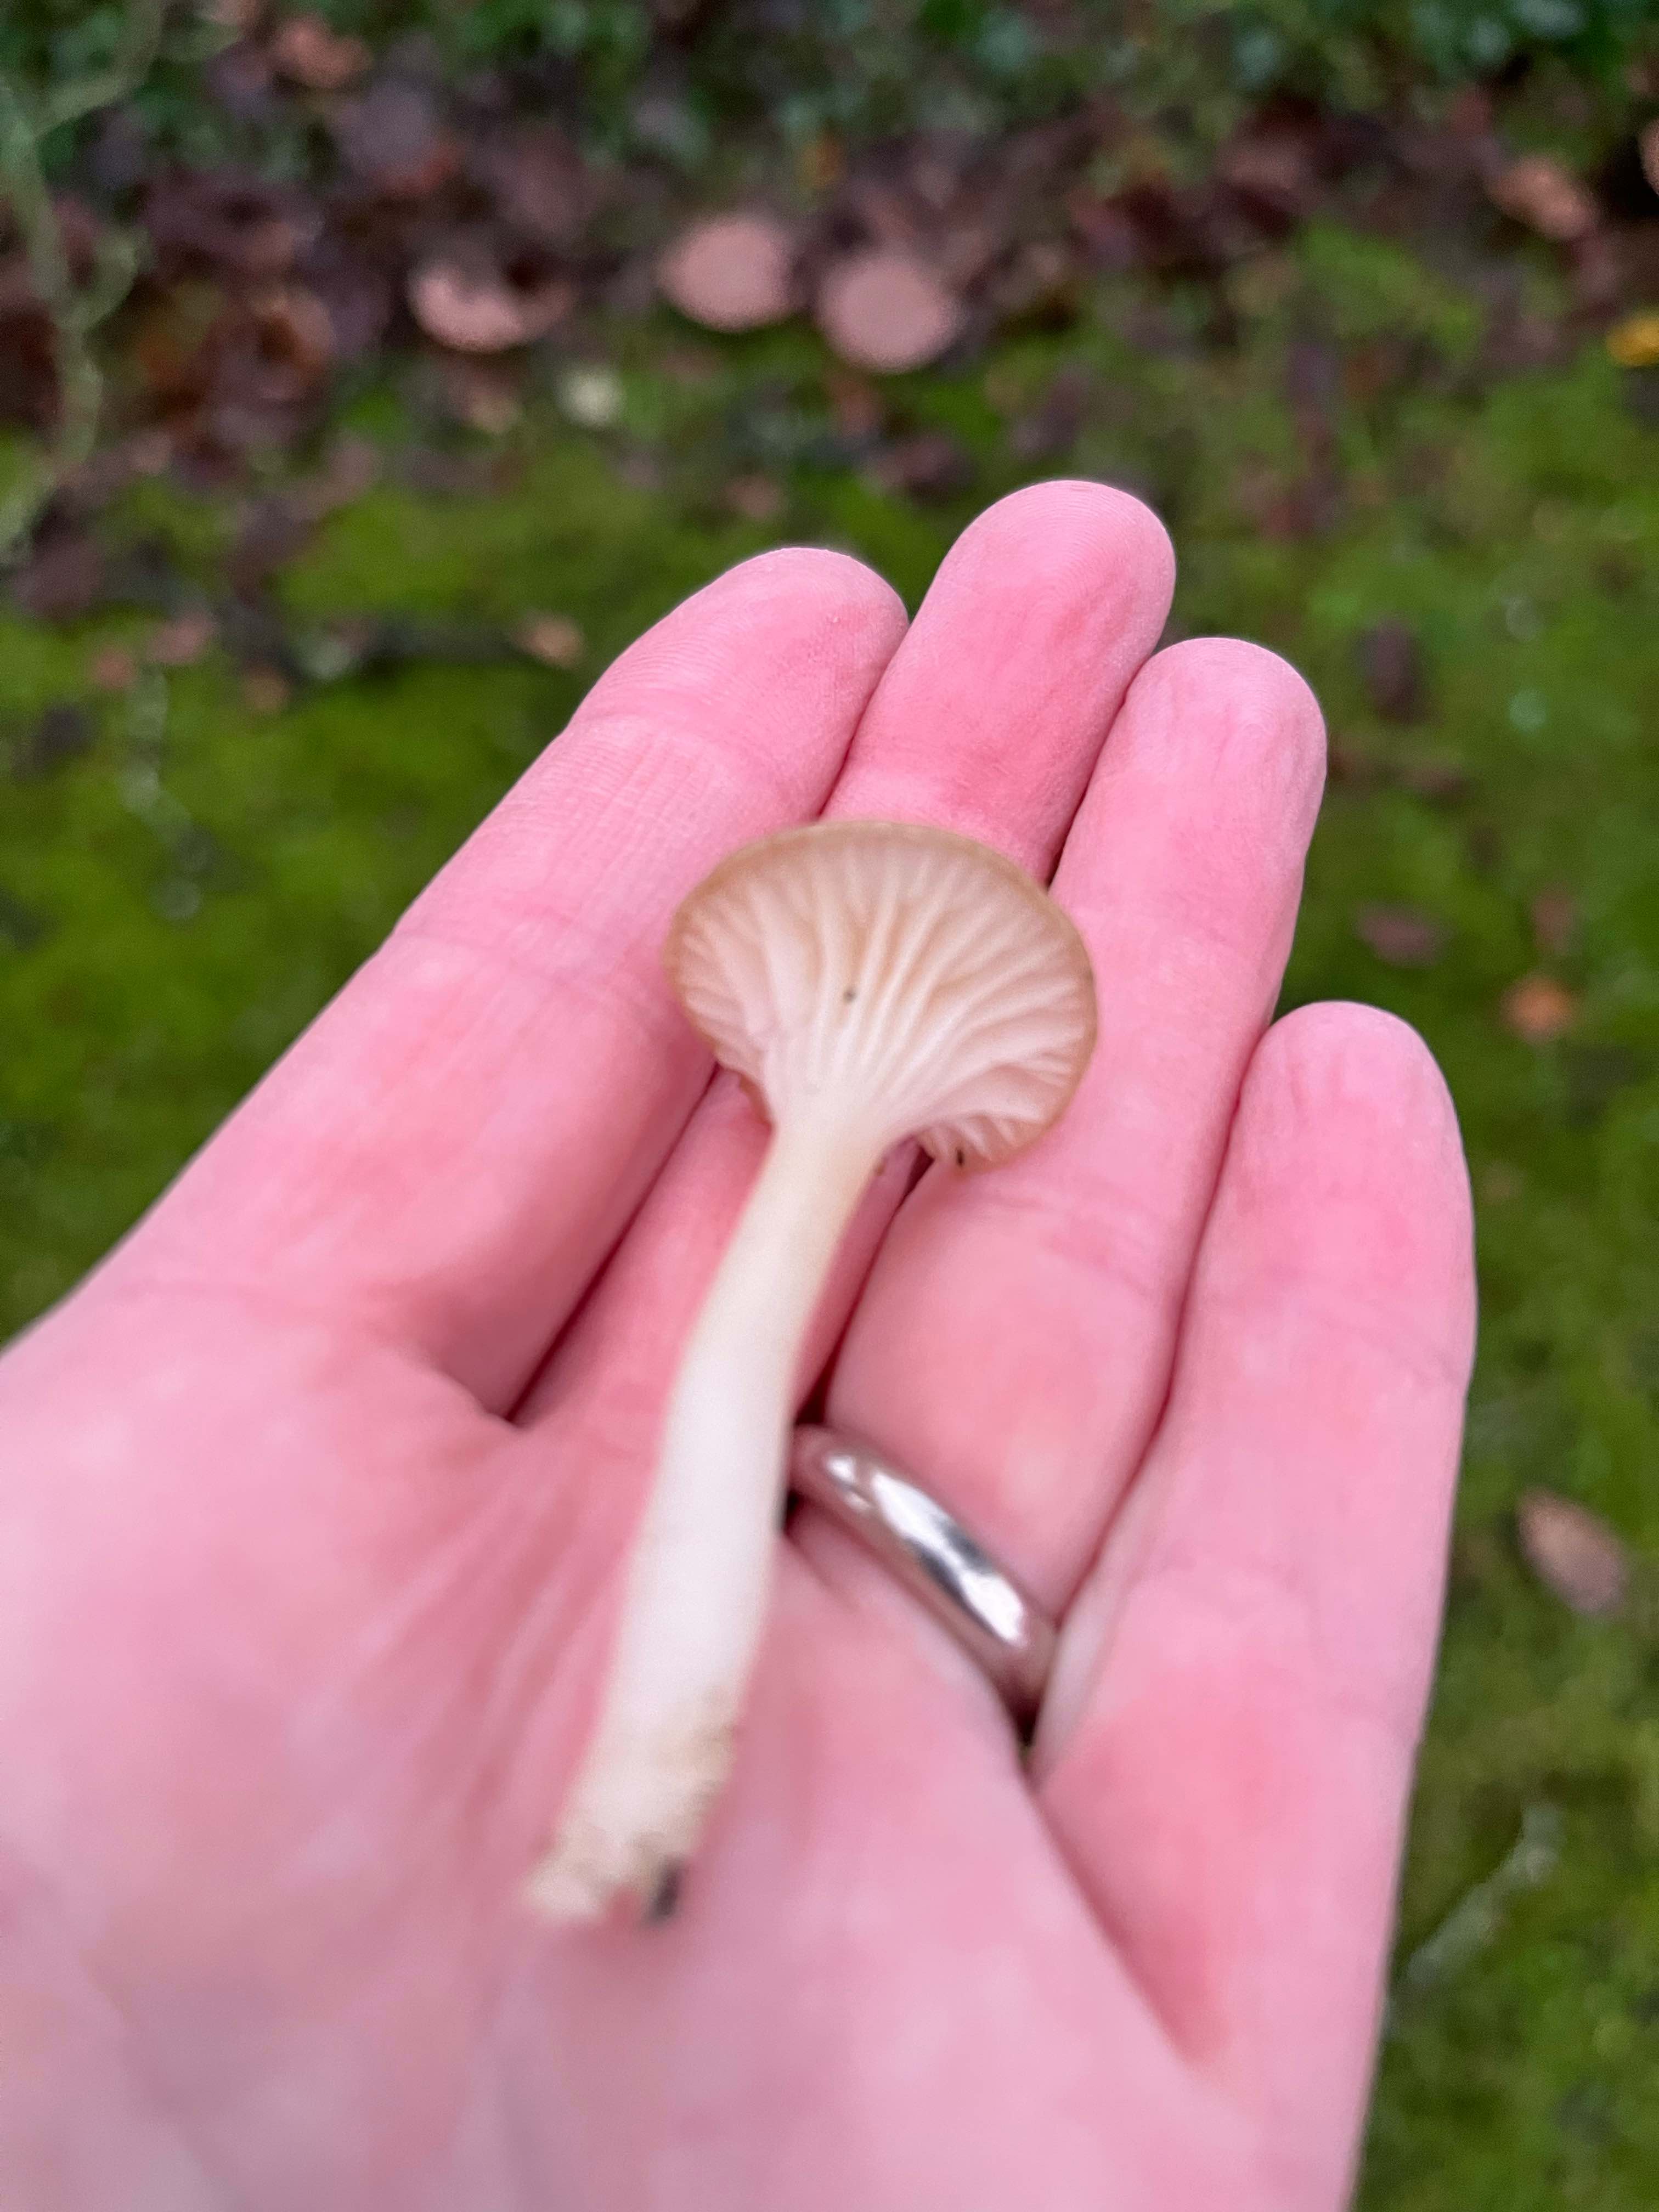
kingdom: Fungi
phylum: Basidiomycota
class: Agaricomycetes
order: Agaricales
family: Hygrophoraceae
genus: Cuphophyllus
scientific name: Cuphophyllus virgineus
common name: snehvid vokshat
